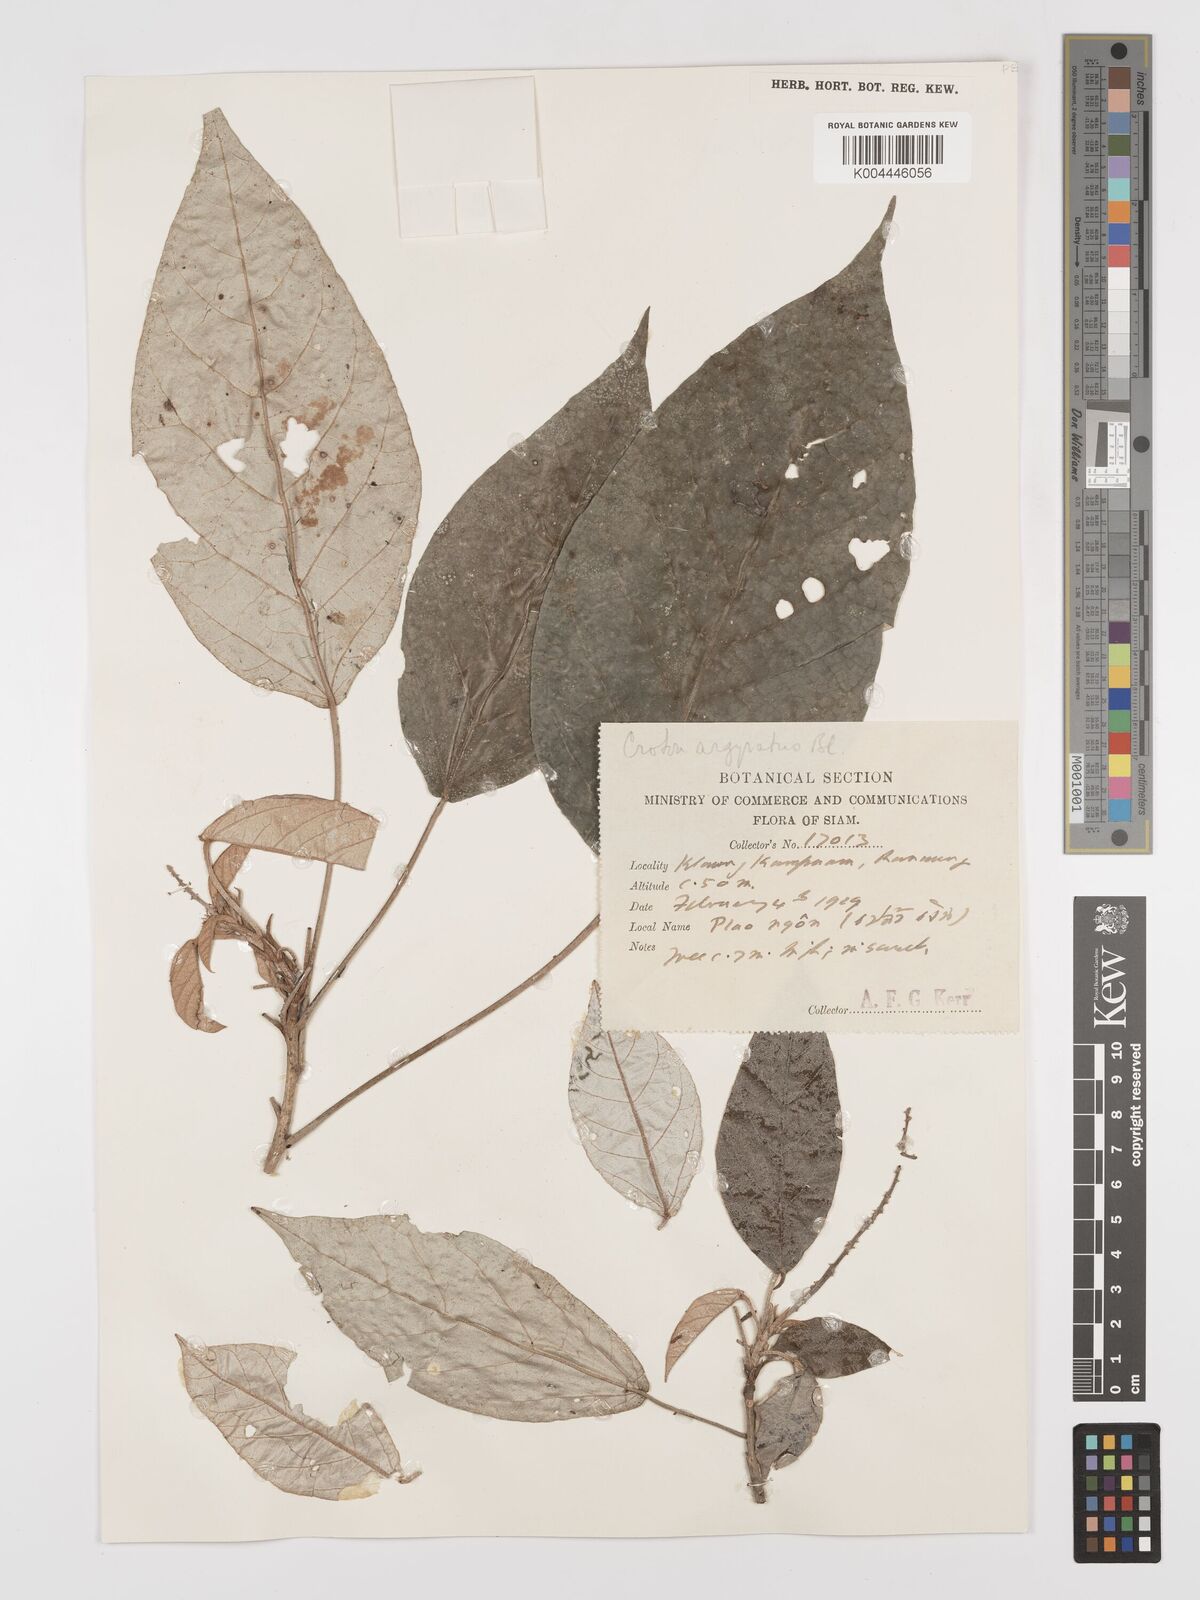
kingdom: Plantae
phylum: Tracheophyta
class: Magnoliopsida
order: Malpighiales
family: Euphorbiaceae
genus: Croton
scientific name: Croton argyratus
